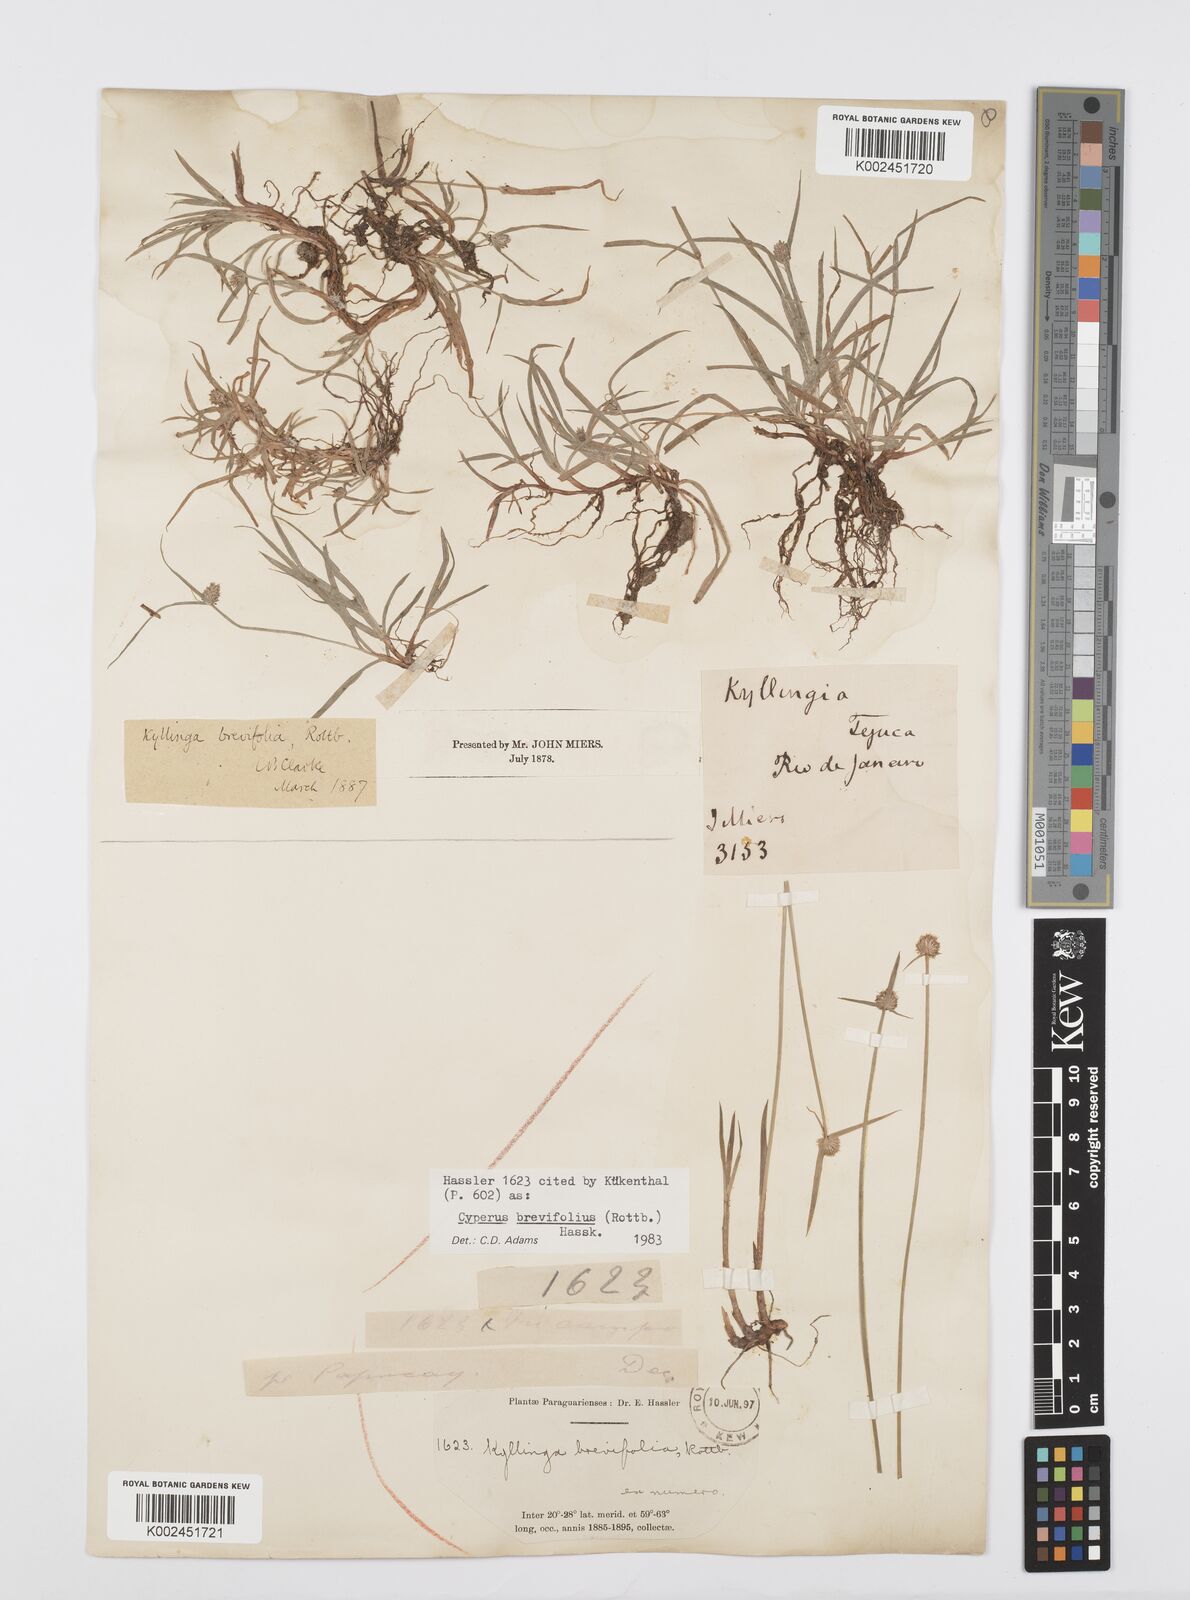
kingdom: Plantae
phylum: Tracheophyta
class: Liliopsida
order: Poales
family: Cyperaceae
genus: Cyperus
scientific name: Cyperus brevifolius
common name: Globe kyllinga
